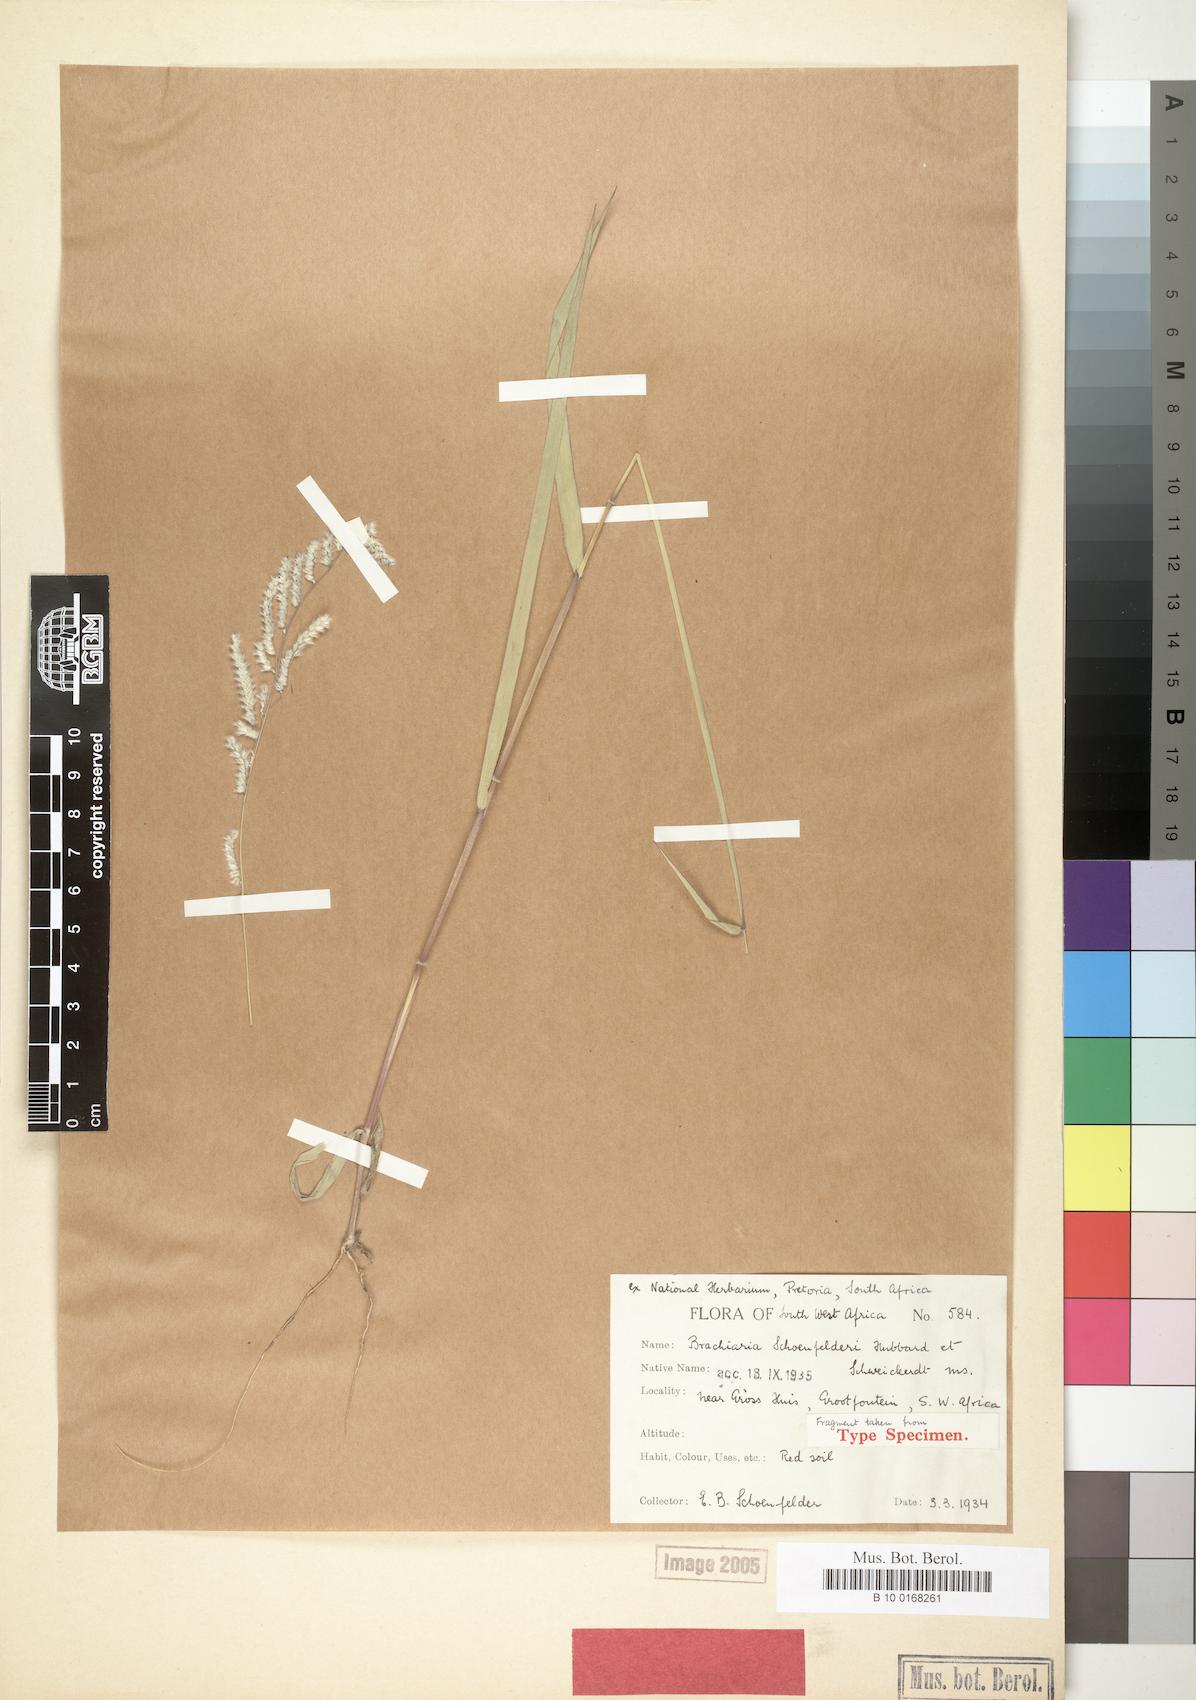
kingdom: Plantae
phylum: Tracheophyta
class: Liliopsida
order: Poales
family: Poaceae
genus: Moorochloa
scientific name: Moorochloa schoenfelderi
